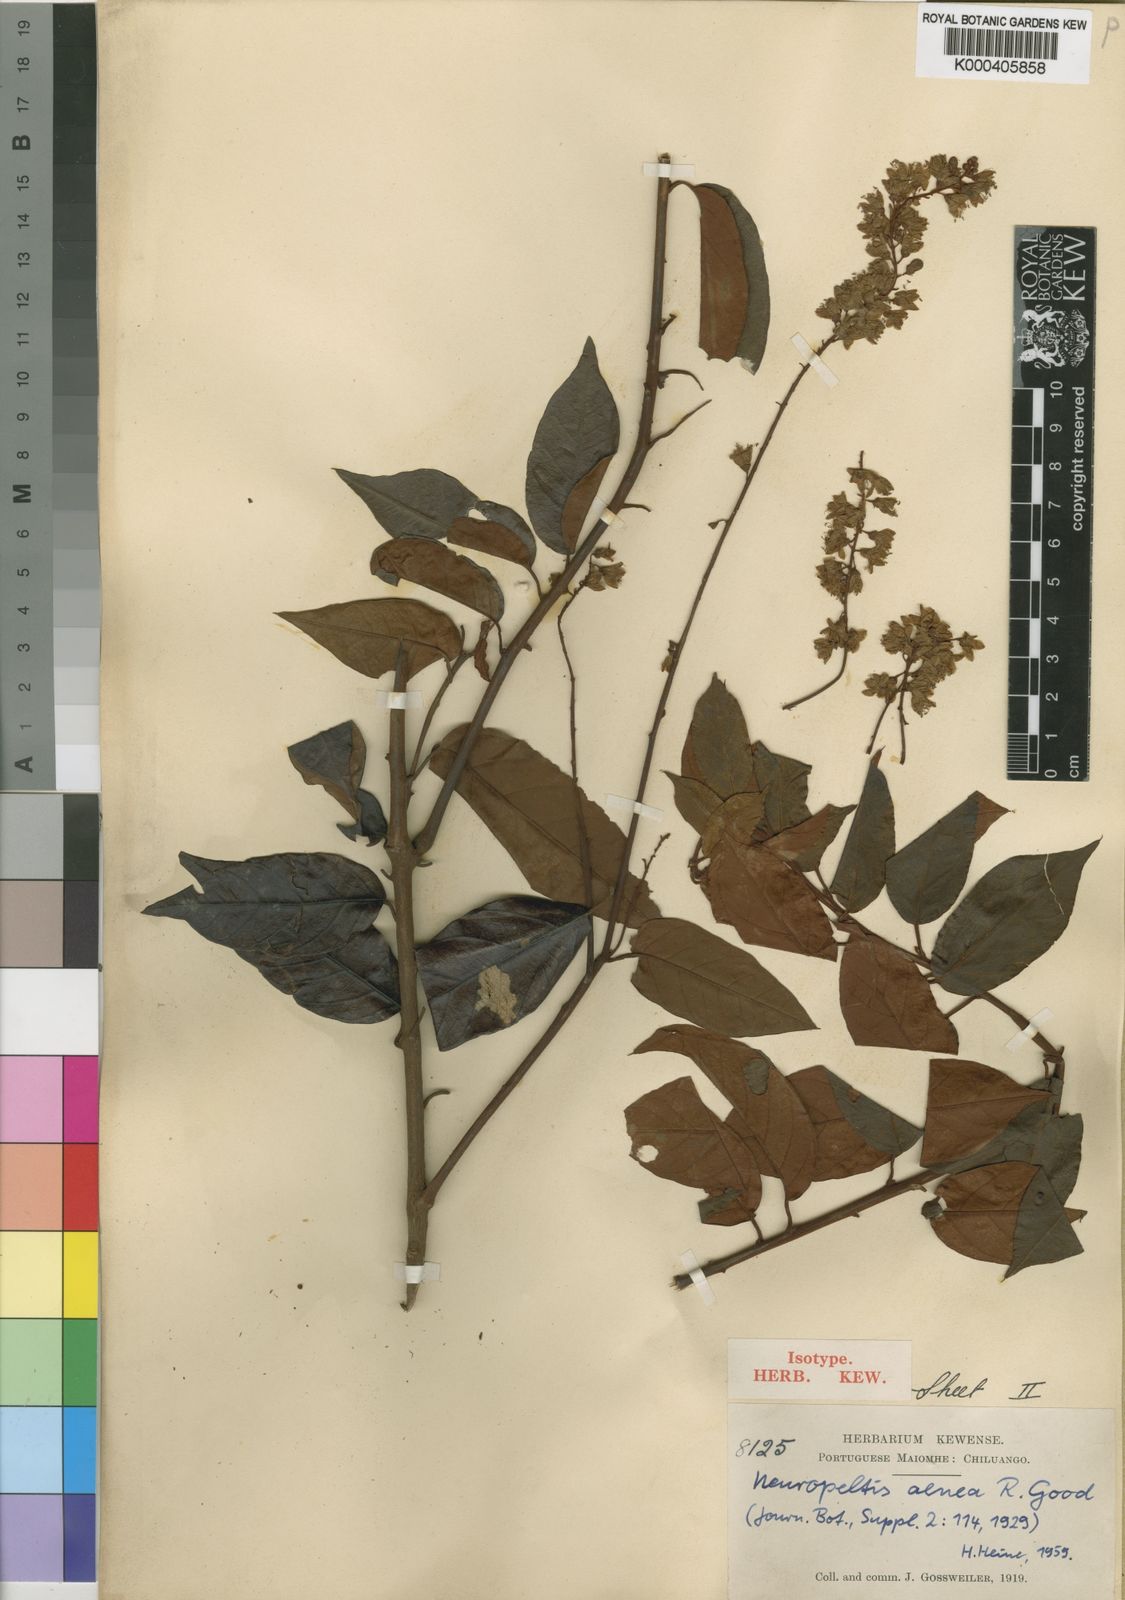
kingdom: Plantae
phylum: Tracheophyta
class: Magnoliopsida
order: Solanales
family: Convolvulaceae
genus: Neuropeltis
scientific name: Neuropeltis aenea
